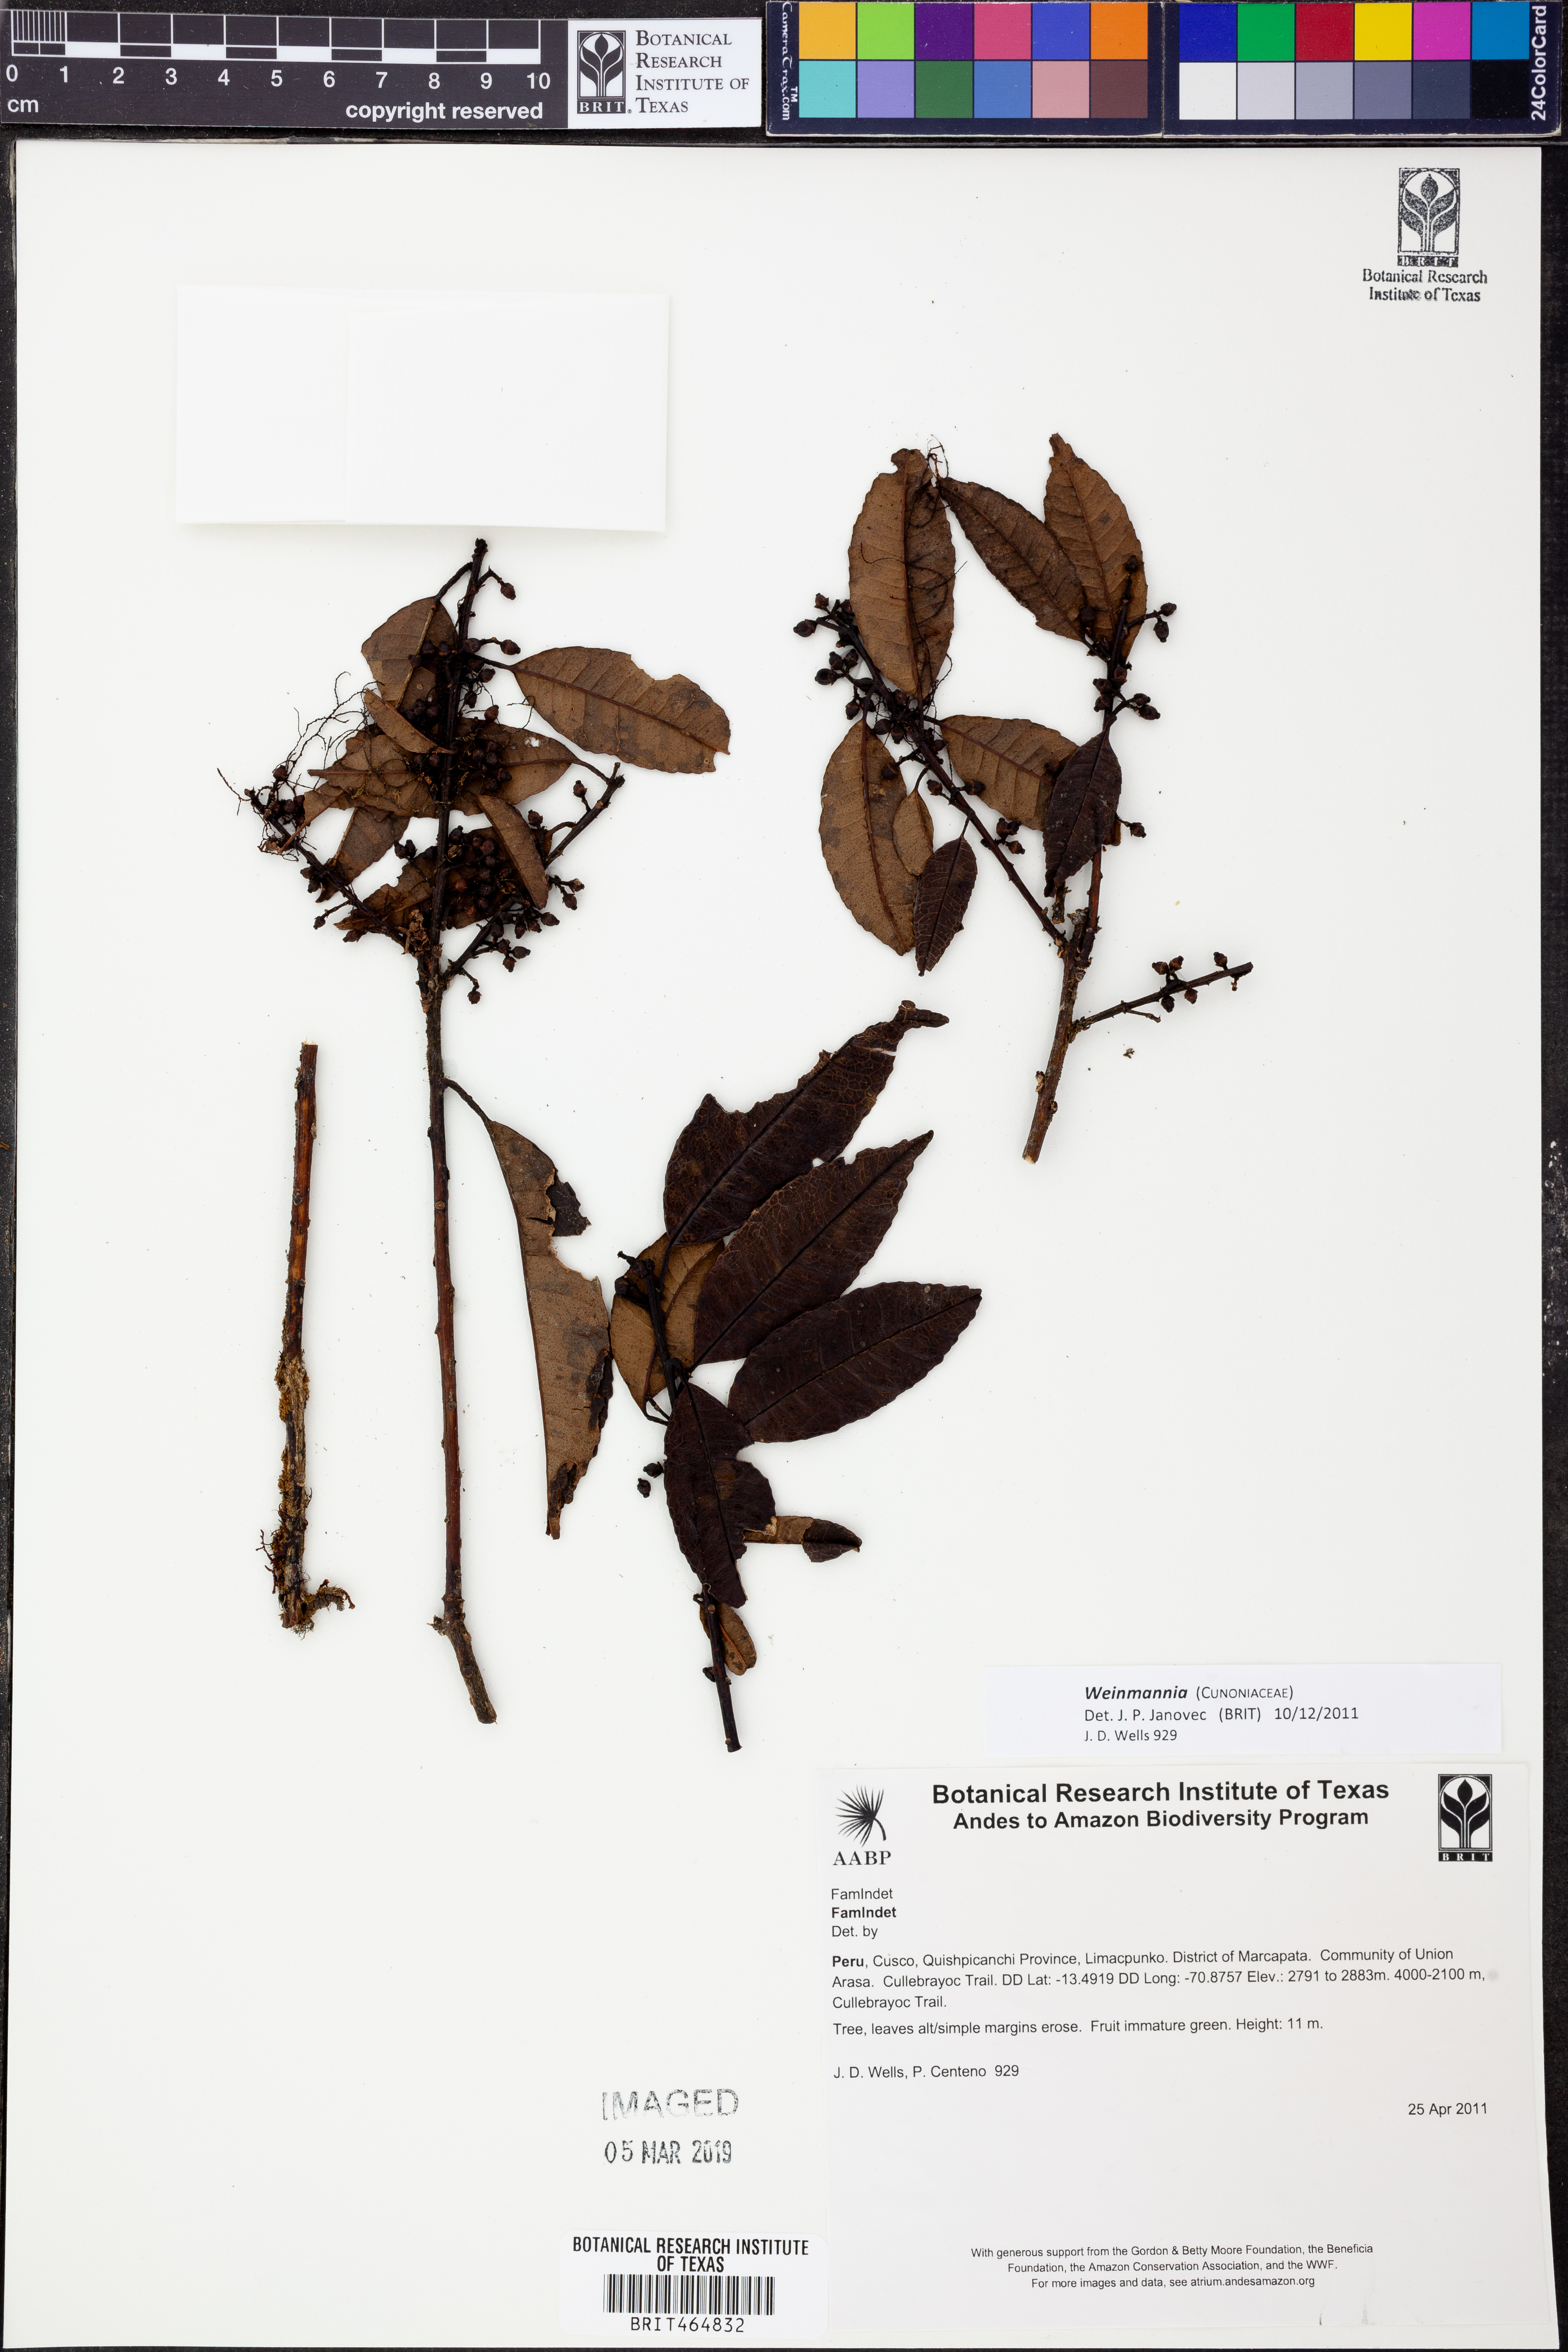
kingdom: Plantae
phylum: Tracheophyta
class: Magnoliopsida
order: Oxalidales
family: Cunoniaceae
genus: Weinmannia
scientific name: Weinmannia
